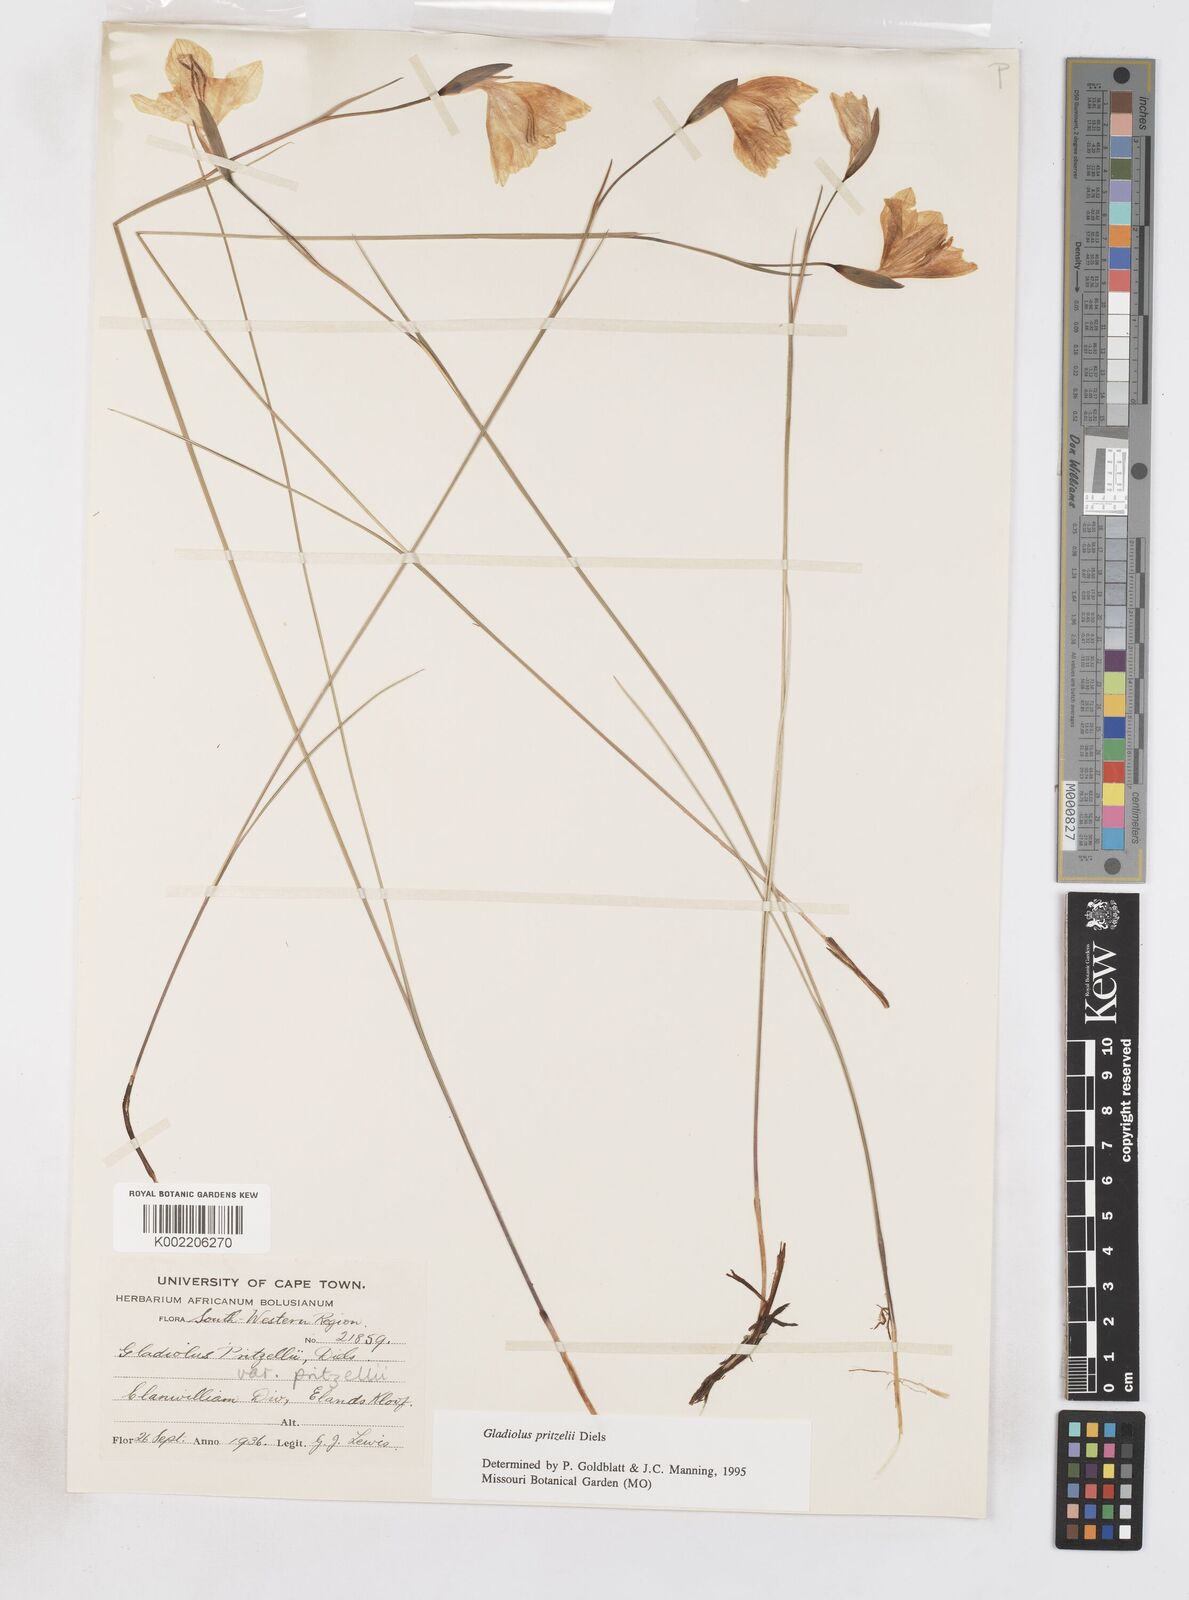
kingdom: Plantae
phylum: Tracheophyta
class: Liliopsida
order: Asparagales
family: Iridaceae
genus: Gladiolus
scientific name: Gladiolus pritzelii
